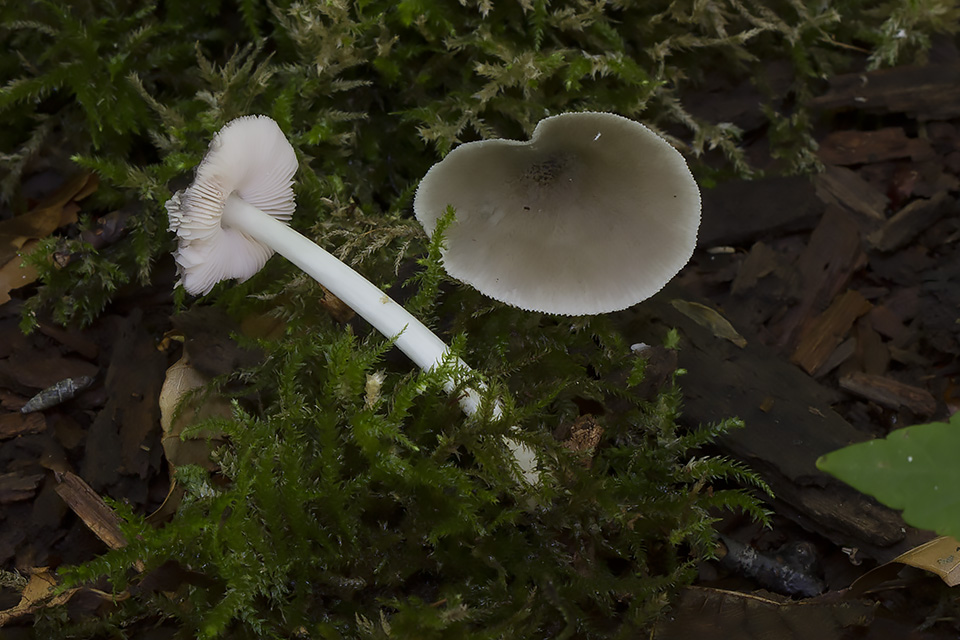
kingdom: Fungi
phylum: Basidiomycota
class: Agaricomycetes
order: Agaricales
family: Pluteaceae
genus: Pluteus
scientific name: Pluteus salicinus
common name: stiv skærmhat
